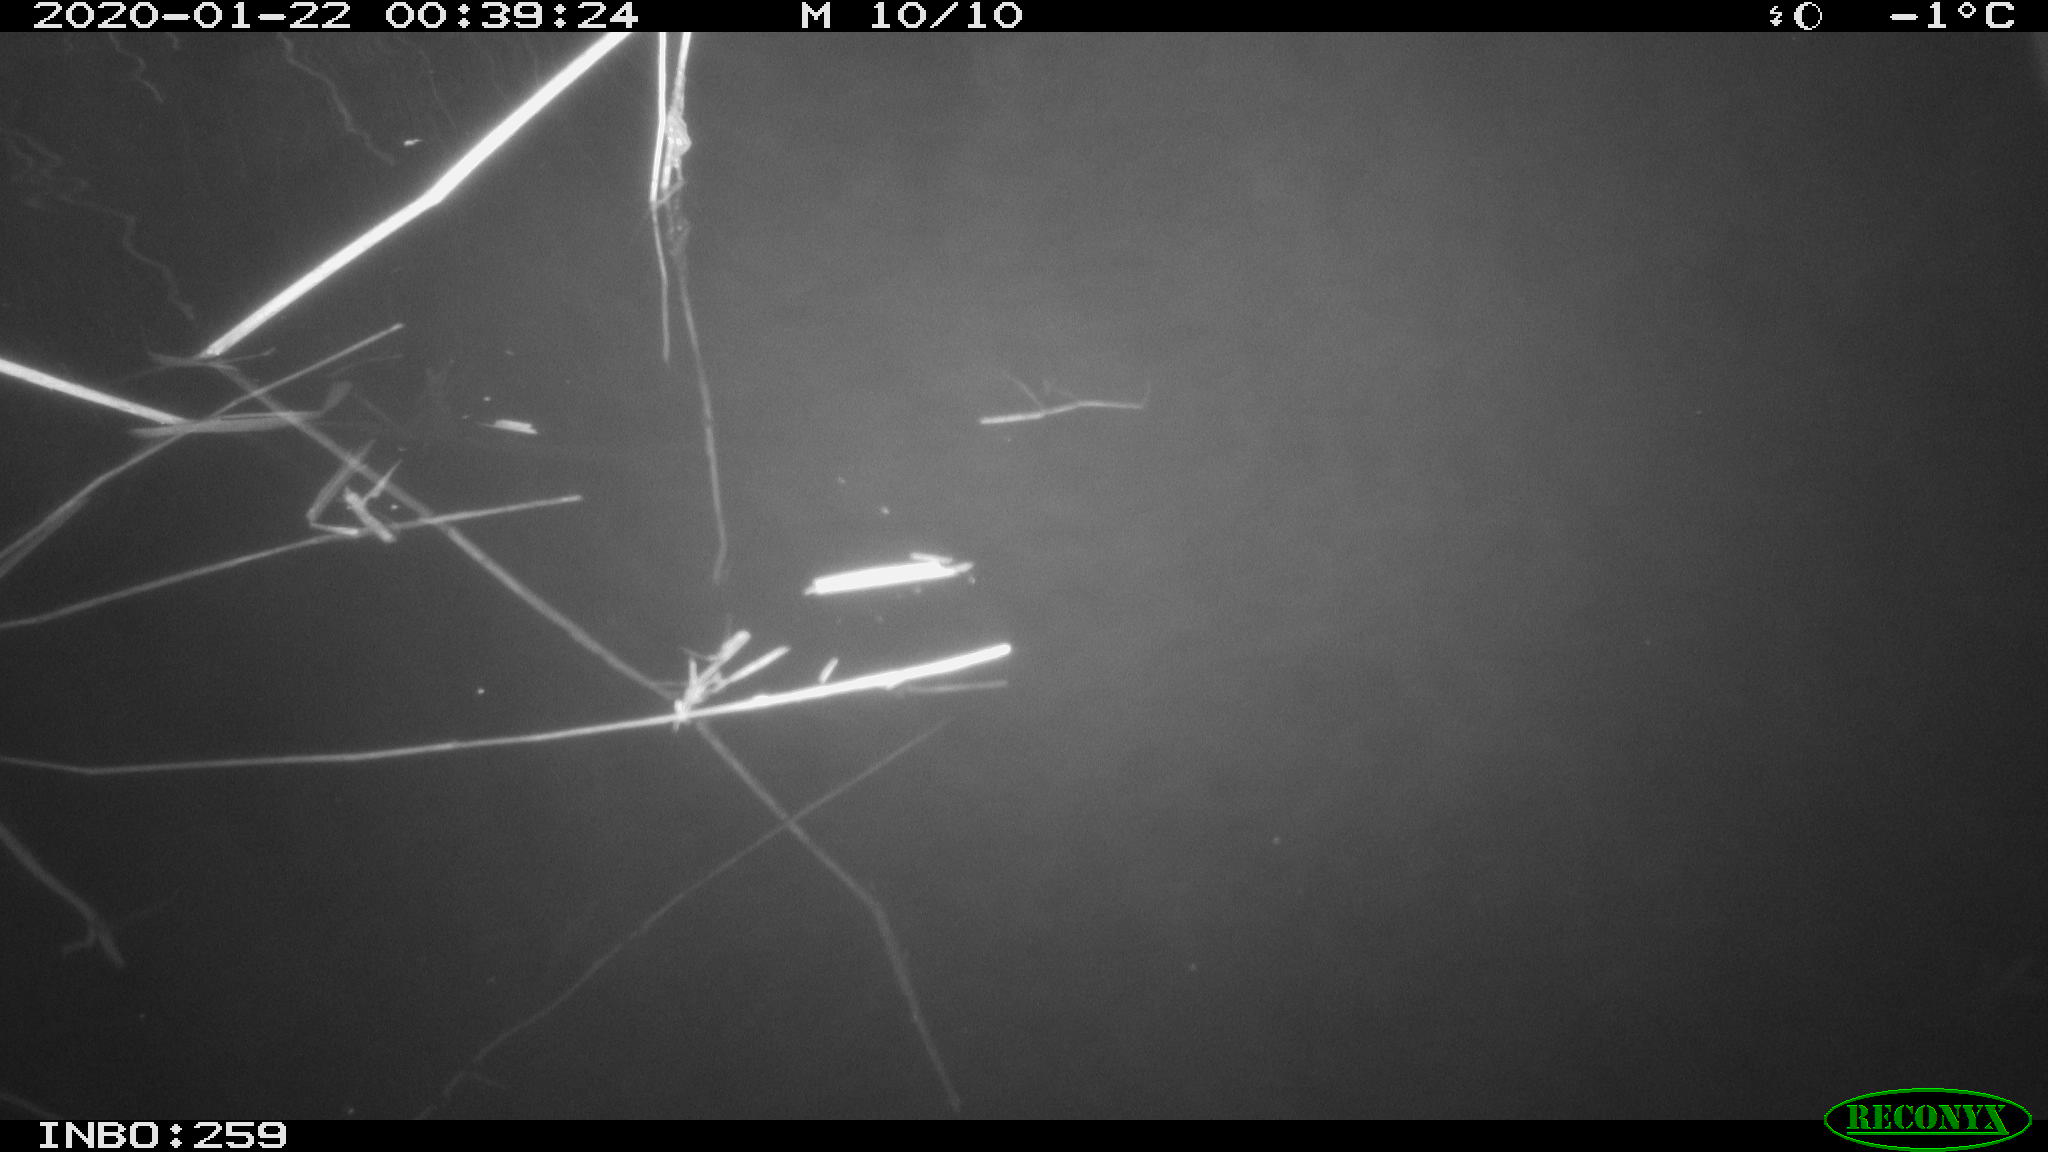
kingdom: Animalia
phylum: Chordata
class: Mammalia
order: Rodentia
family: Cricetidae
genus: Ondatra
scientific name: Ondatra zibethicus
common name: Muskrat
